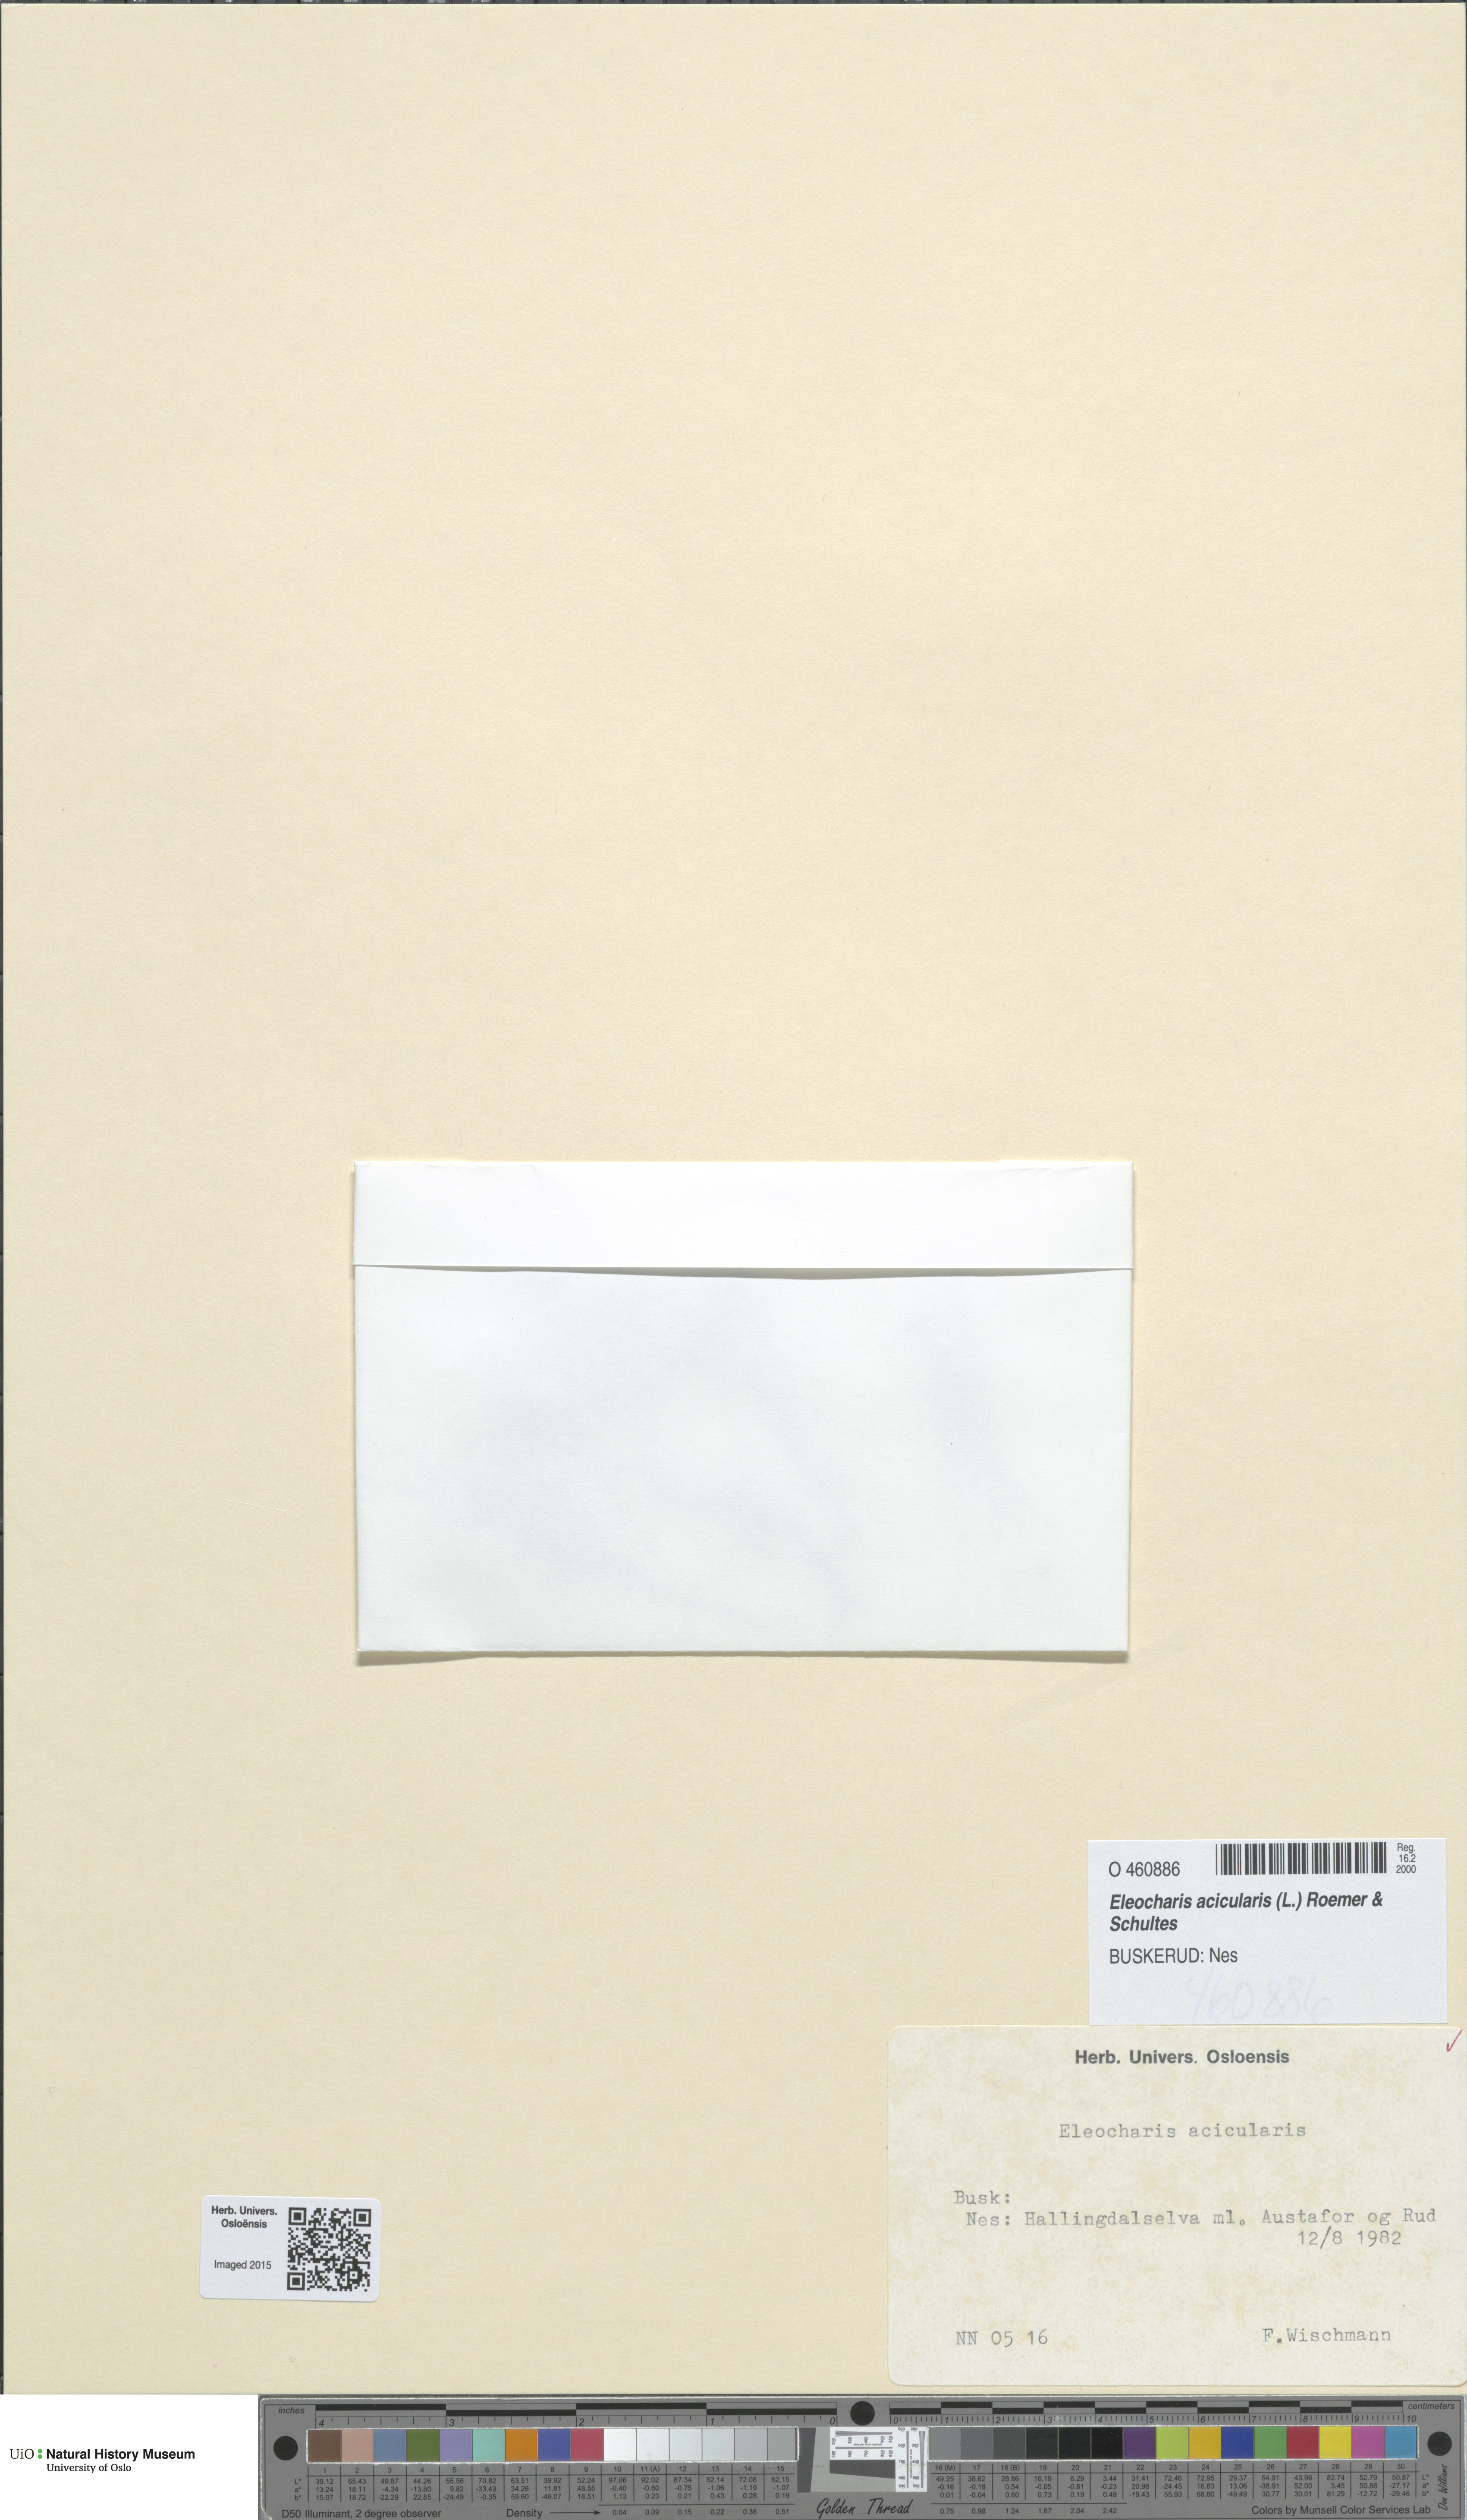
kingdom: Plantae
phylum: Tracheophyta
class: Liliopsida
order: Poales
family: Cyperaceae
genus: Eleocharis
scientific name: Eleocharis acicularis
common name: Needle spike-rush
